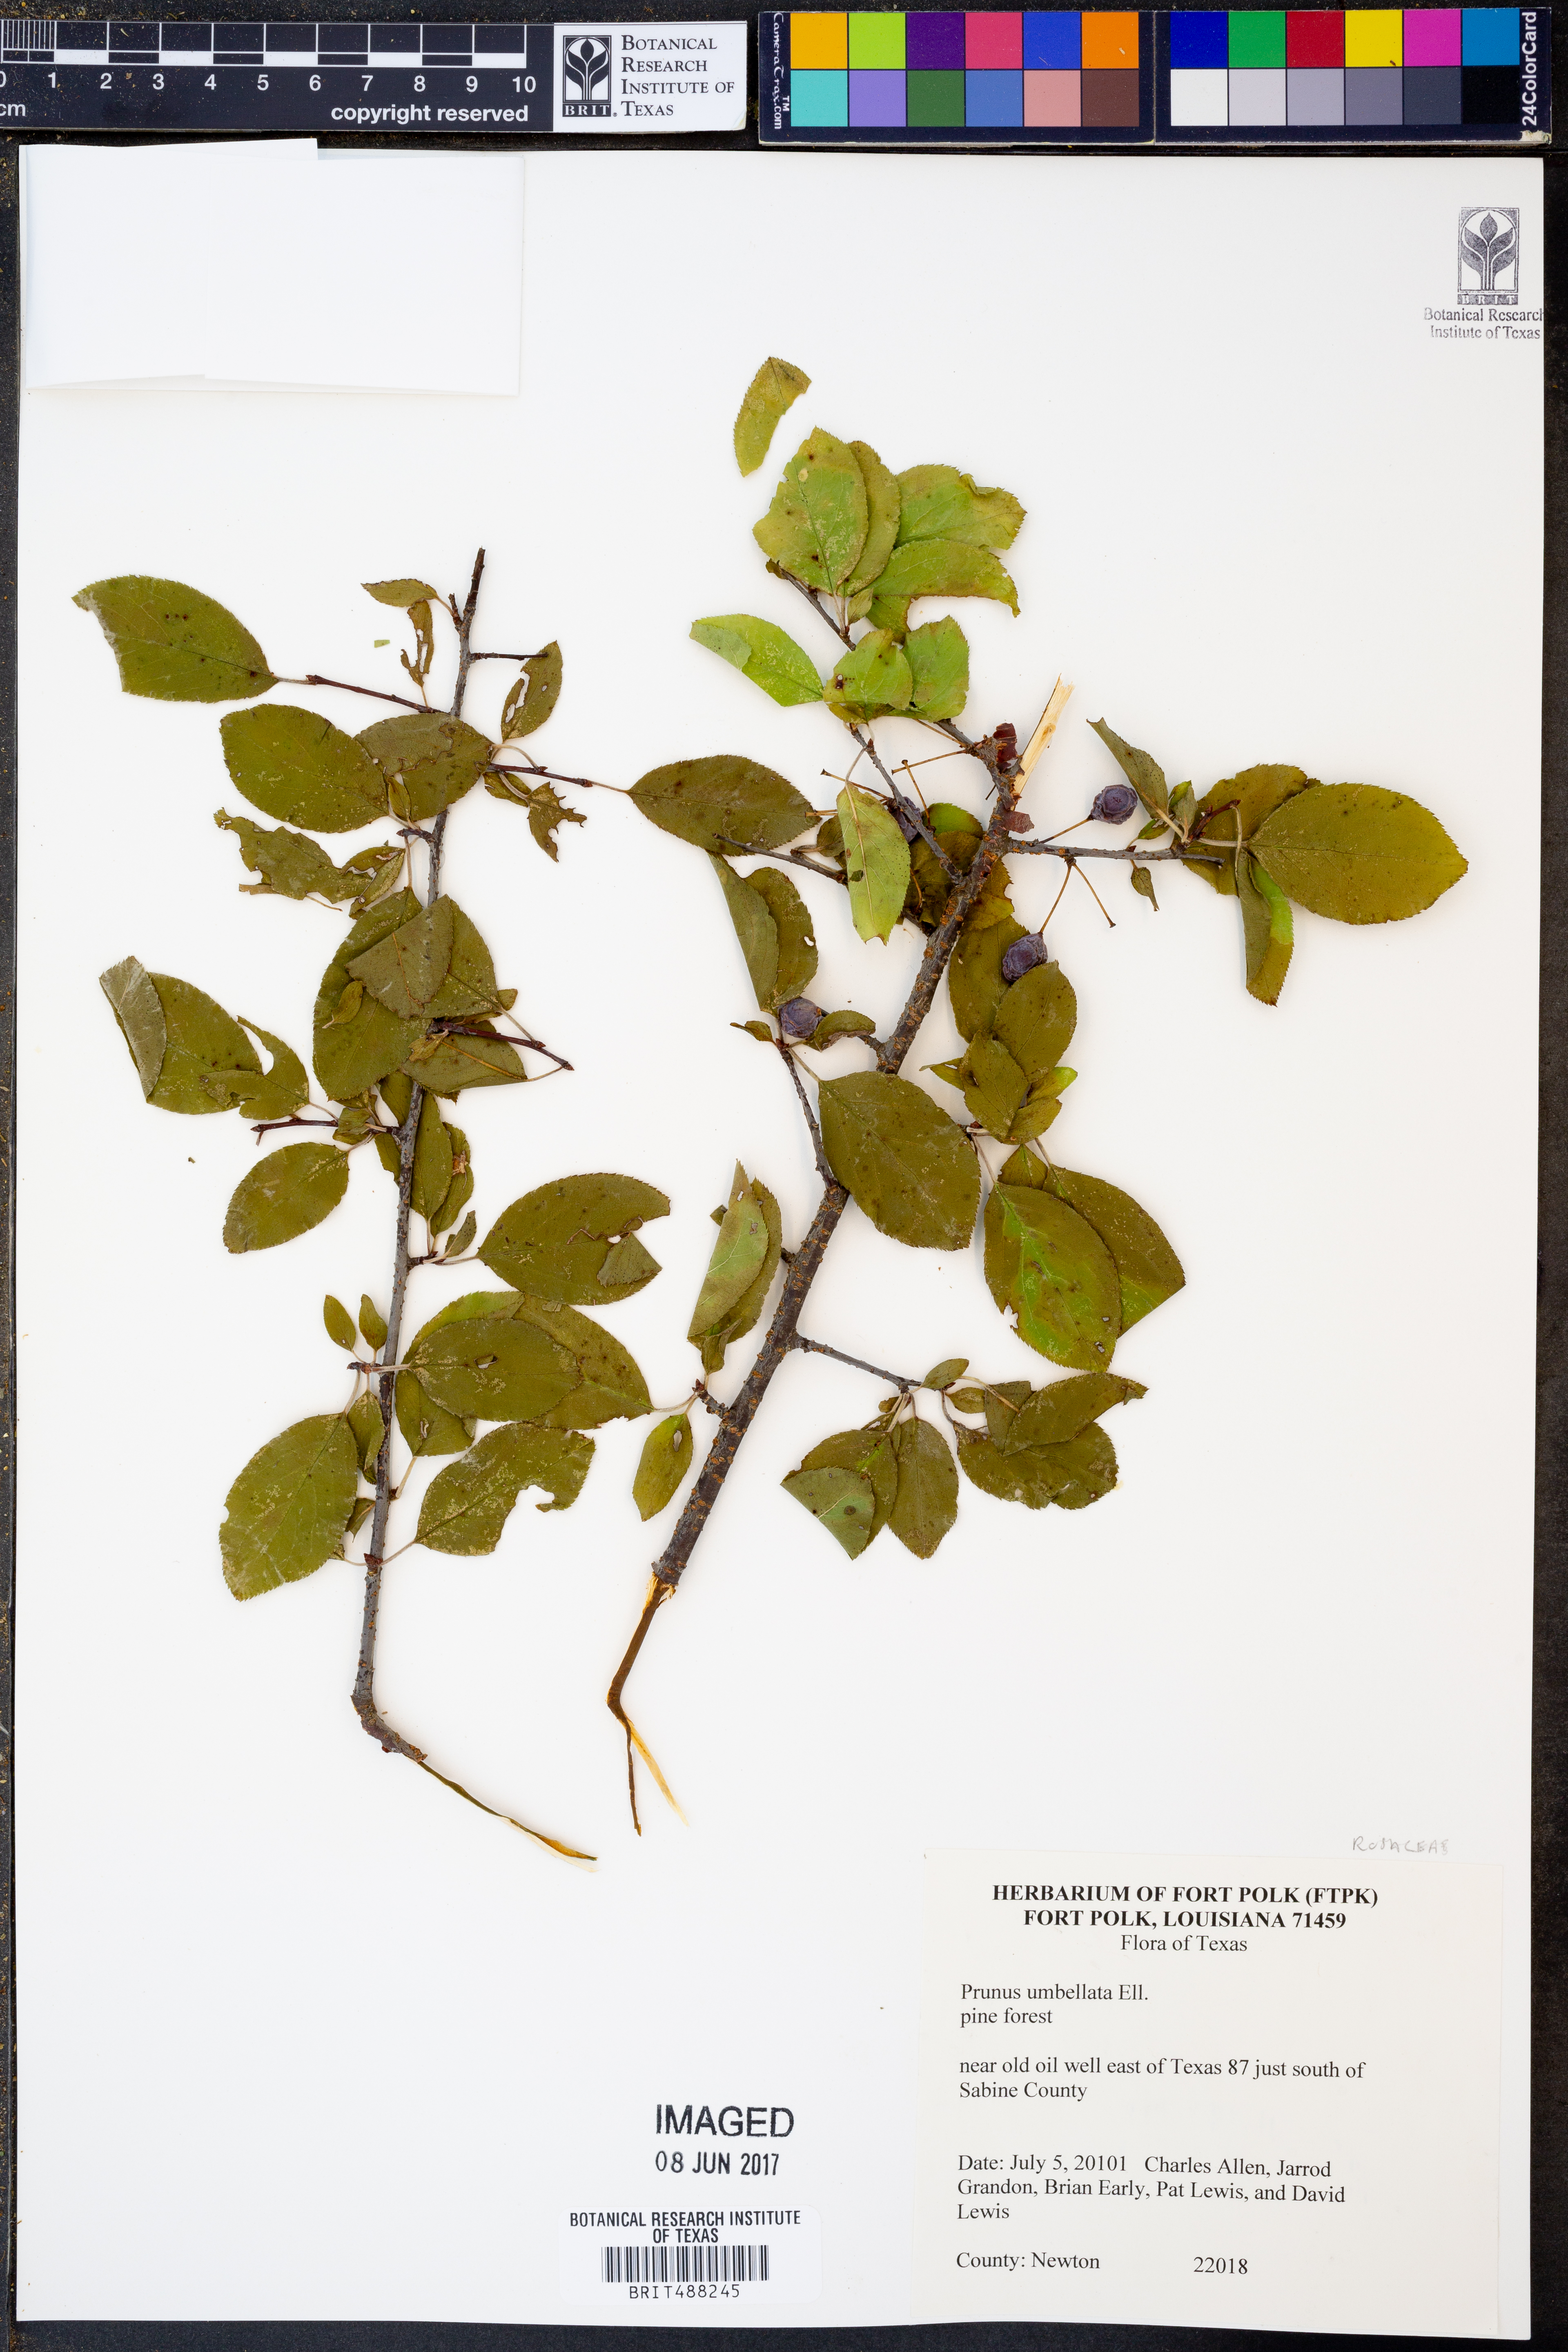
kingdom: Plantae
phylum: Tracheophyta
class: Magnoliopsida
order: Rosales
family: Rosaceae
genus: Prunus
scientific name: Prunus umbellata
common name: Allegheny plum
